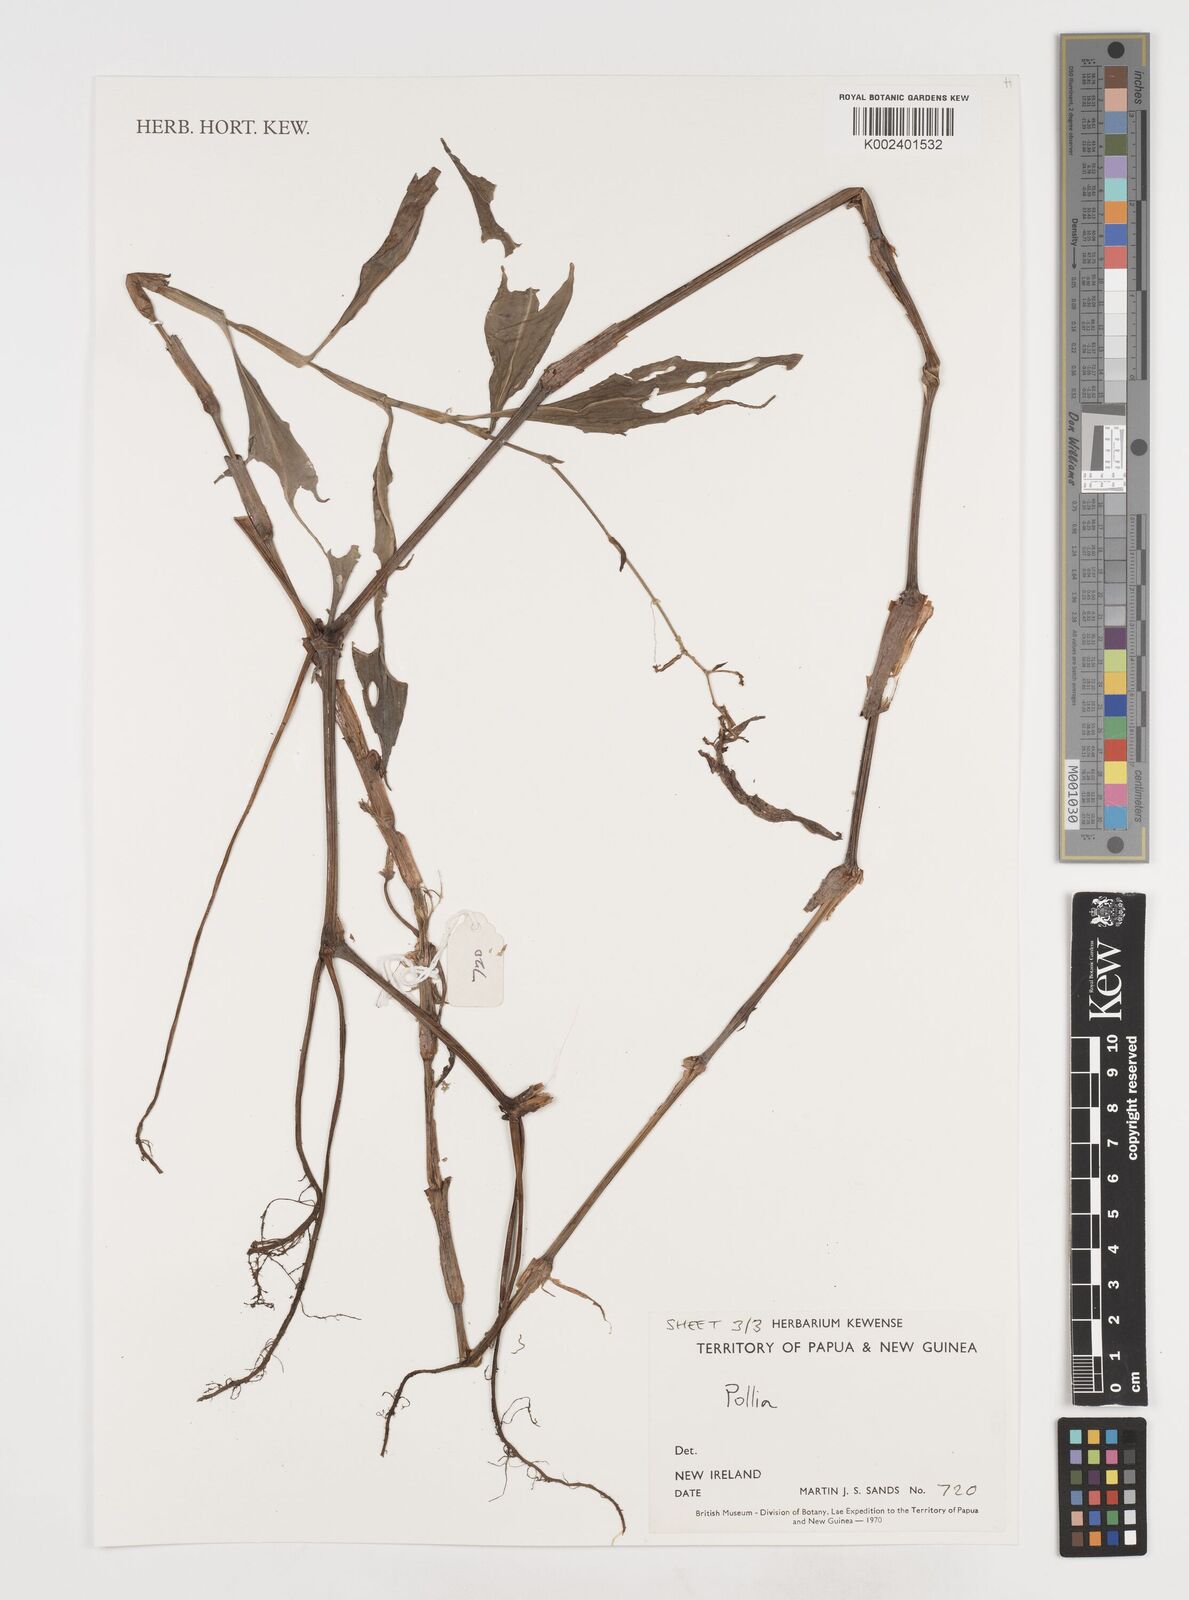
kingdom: Plantae
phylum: Tracheophyta
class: Liliopsida
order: Commelinales
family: Commelinaceae
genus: Pollia
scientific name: Pollia
